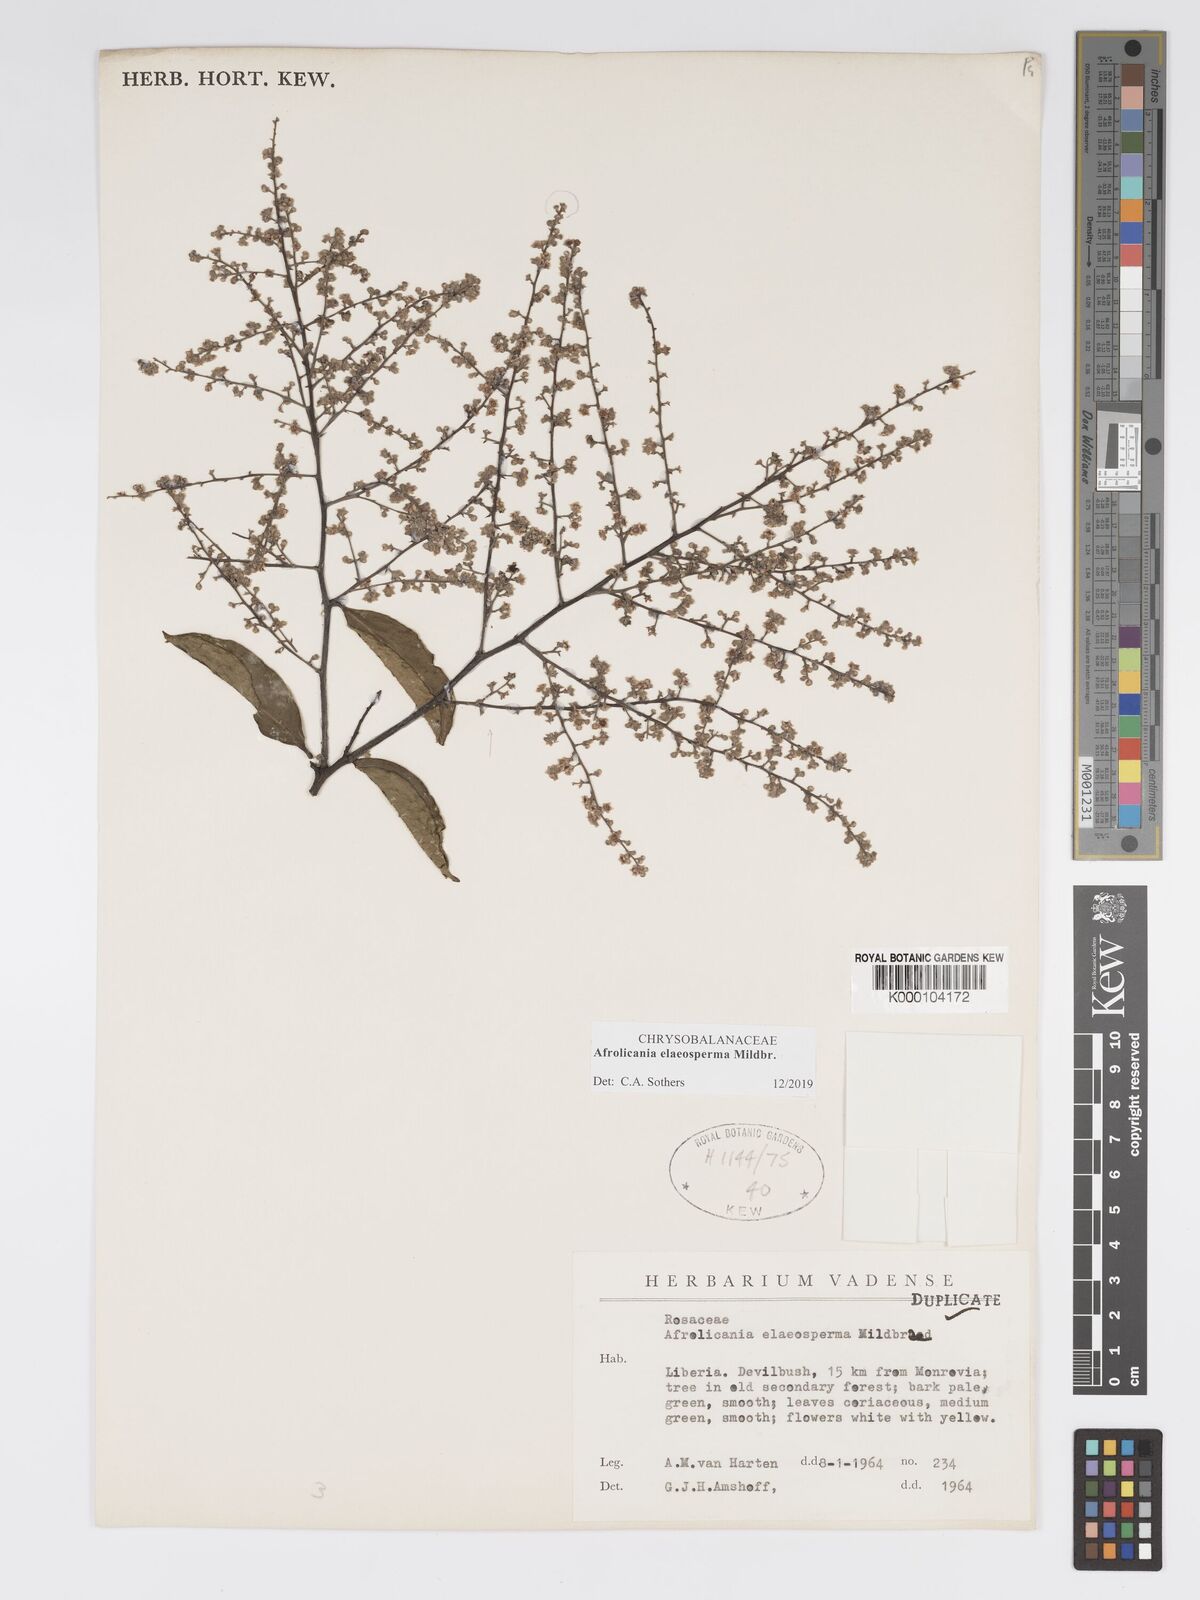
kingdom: Plantae
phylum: Tracheophyta
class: Magnoliopsida
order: Malpighiales
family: Chrysobalanaceae
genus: Afrolicania
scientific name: Afrolicania elaeosperma
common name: Nikko
